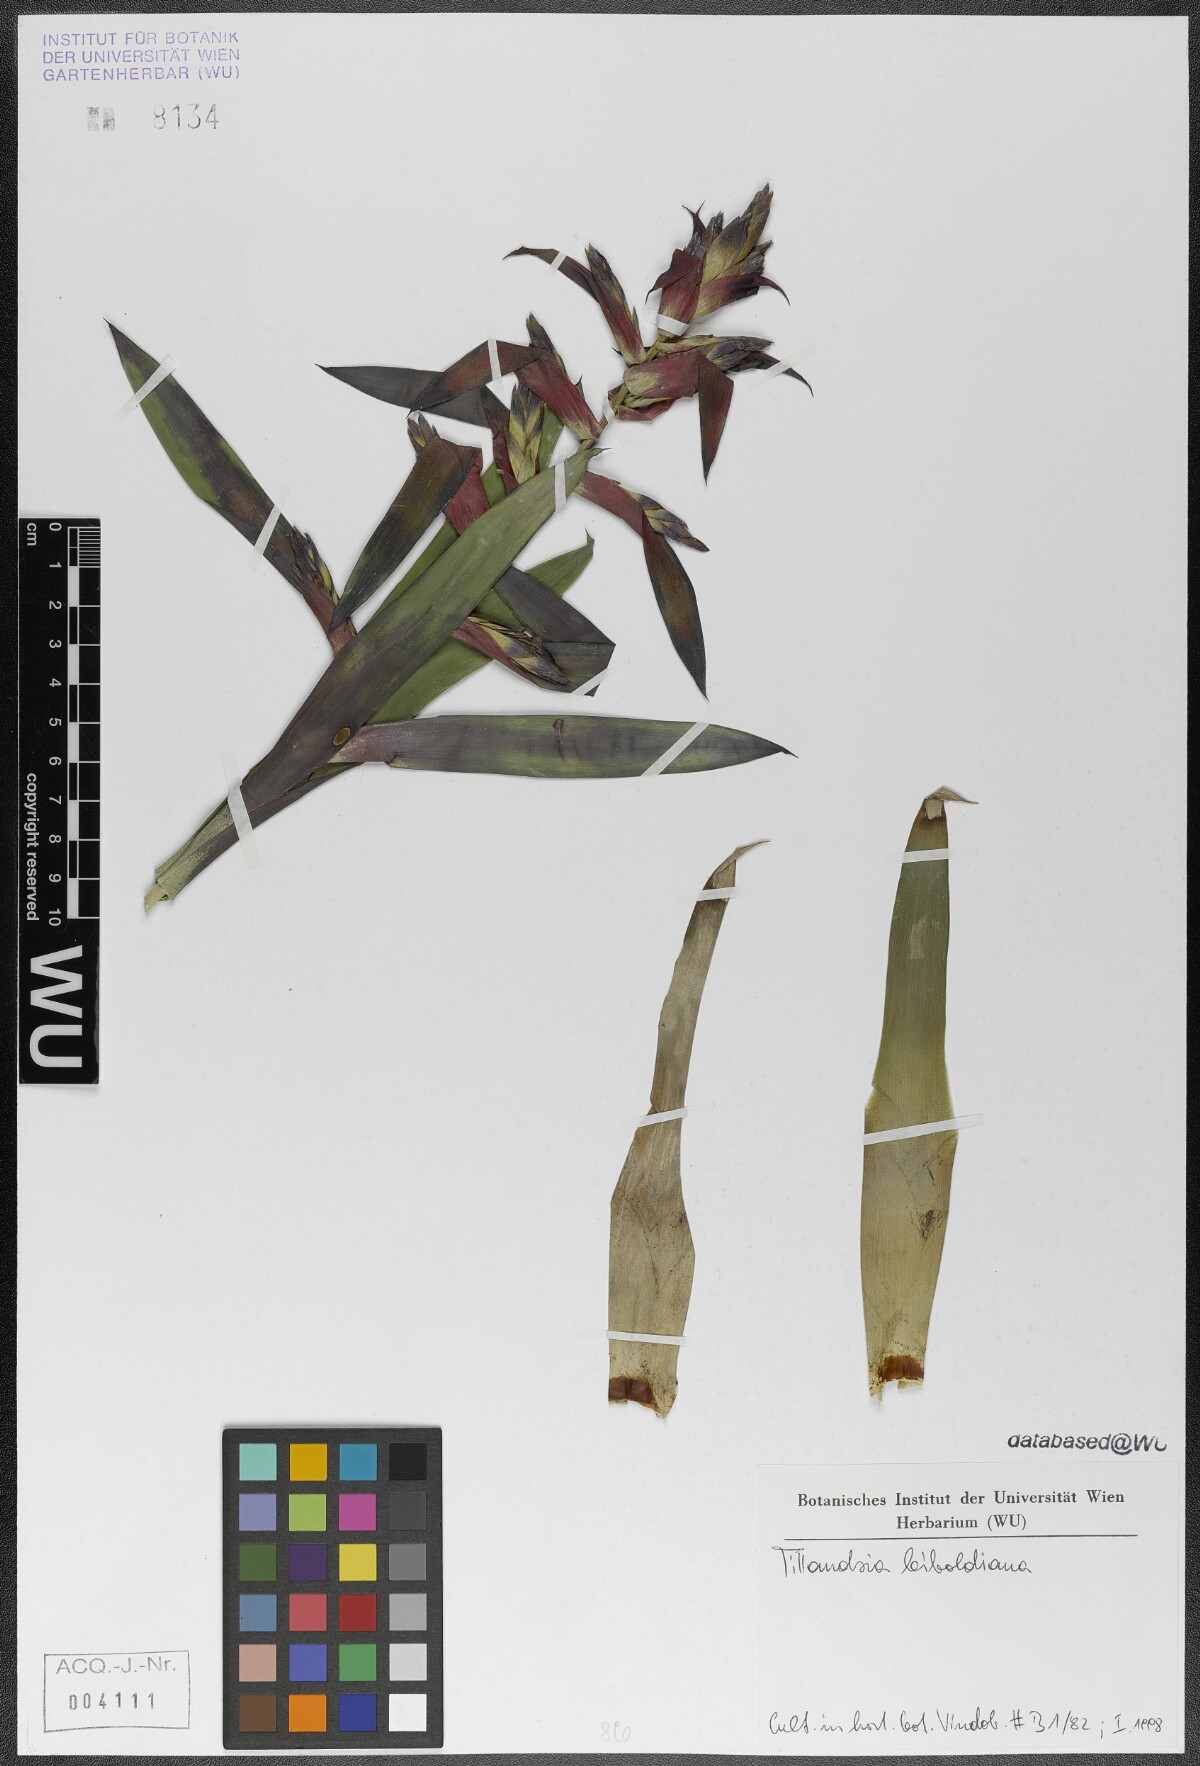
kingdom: Plantae
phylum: Tracheophyta
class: Liliopsida
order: Poales
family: Bromeliaceae
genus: Tillandsia
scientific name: Tillandsia leiboldiana
